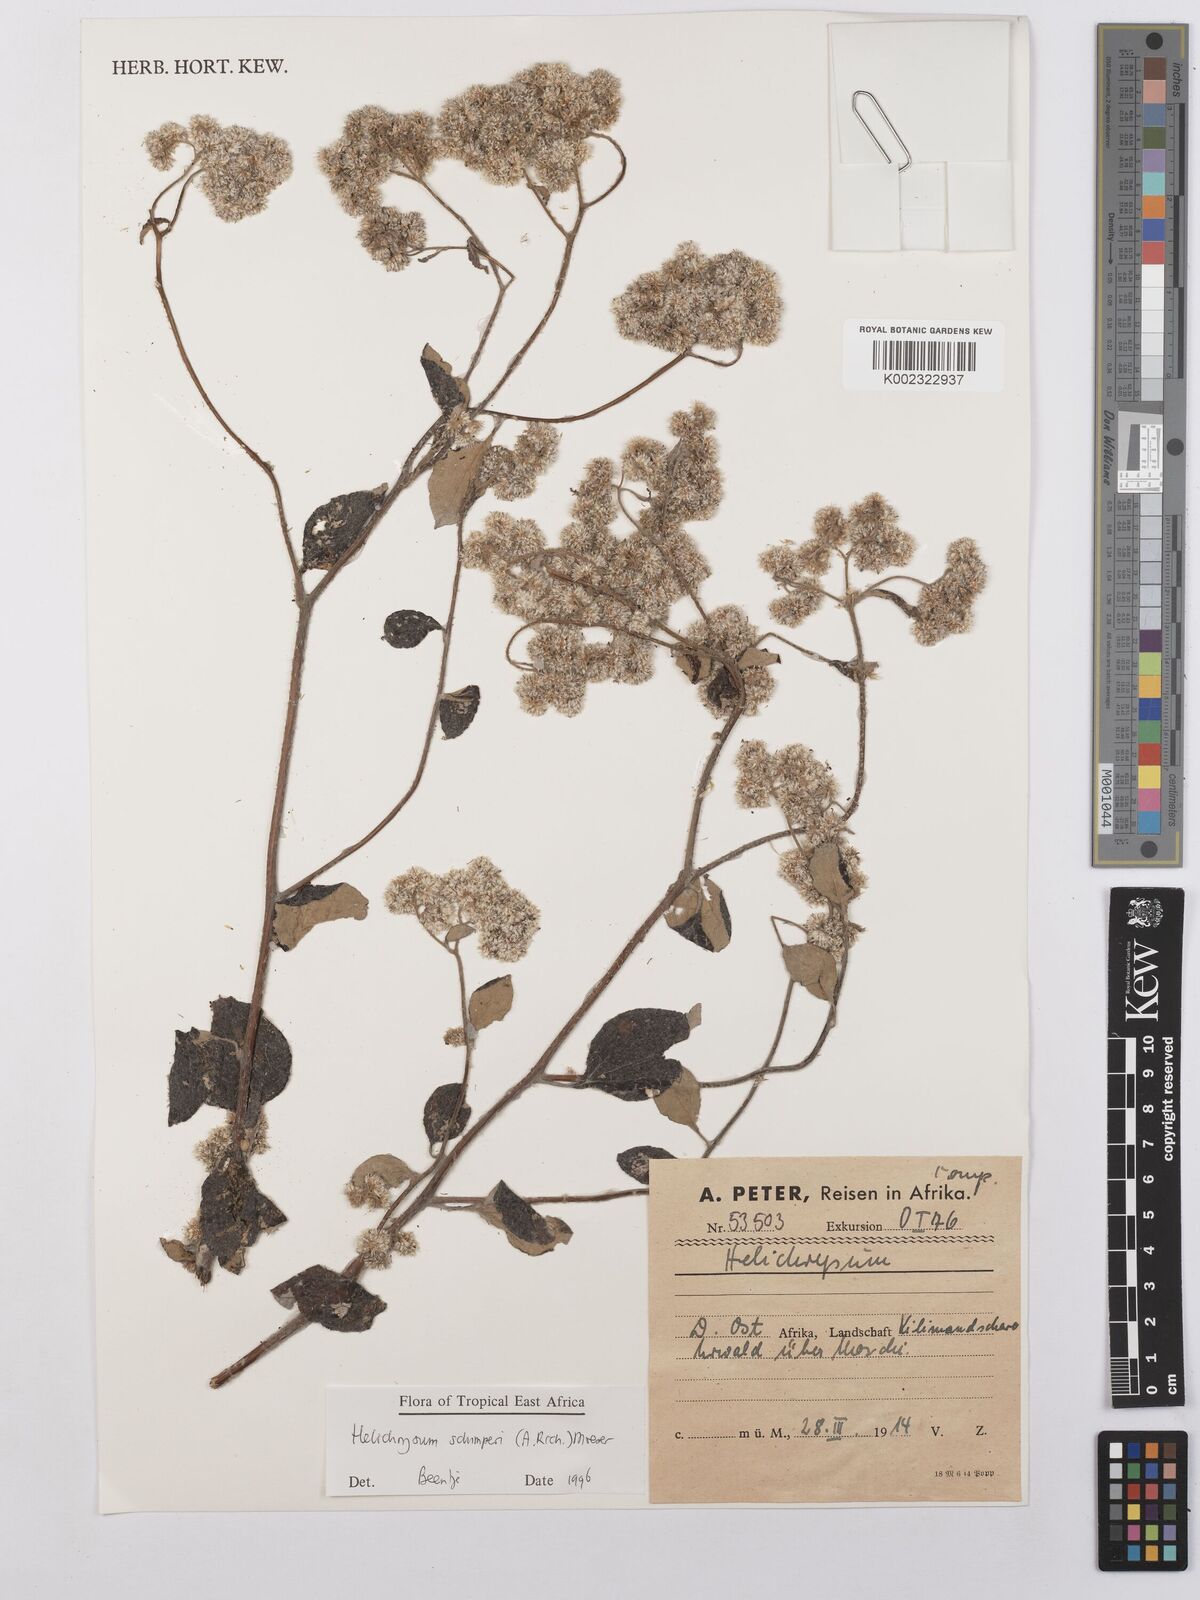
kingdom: Plantae
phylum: Tracheophyta
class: Magnoliopsida
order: Asterales
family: Asteraceae
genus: Helichrysum
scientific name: Helichrysum schimperi
